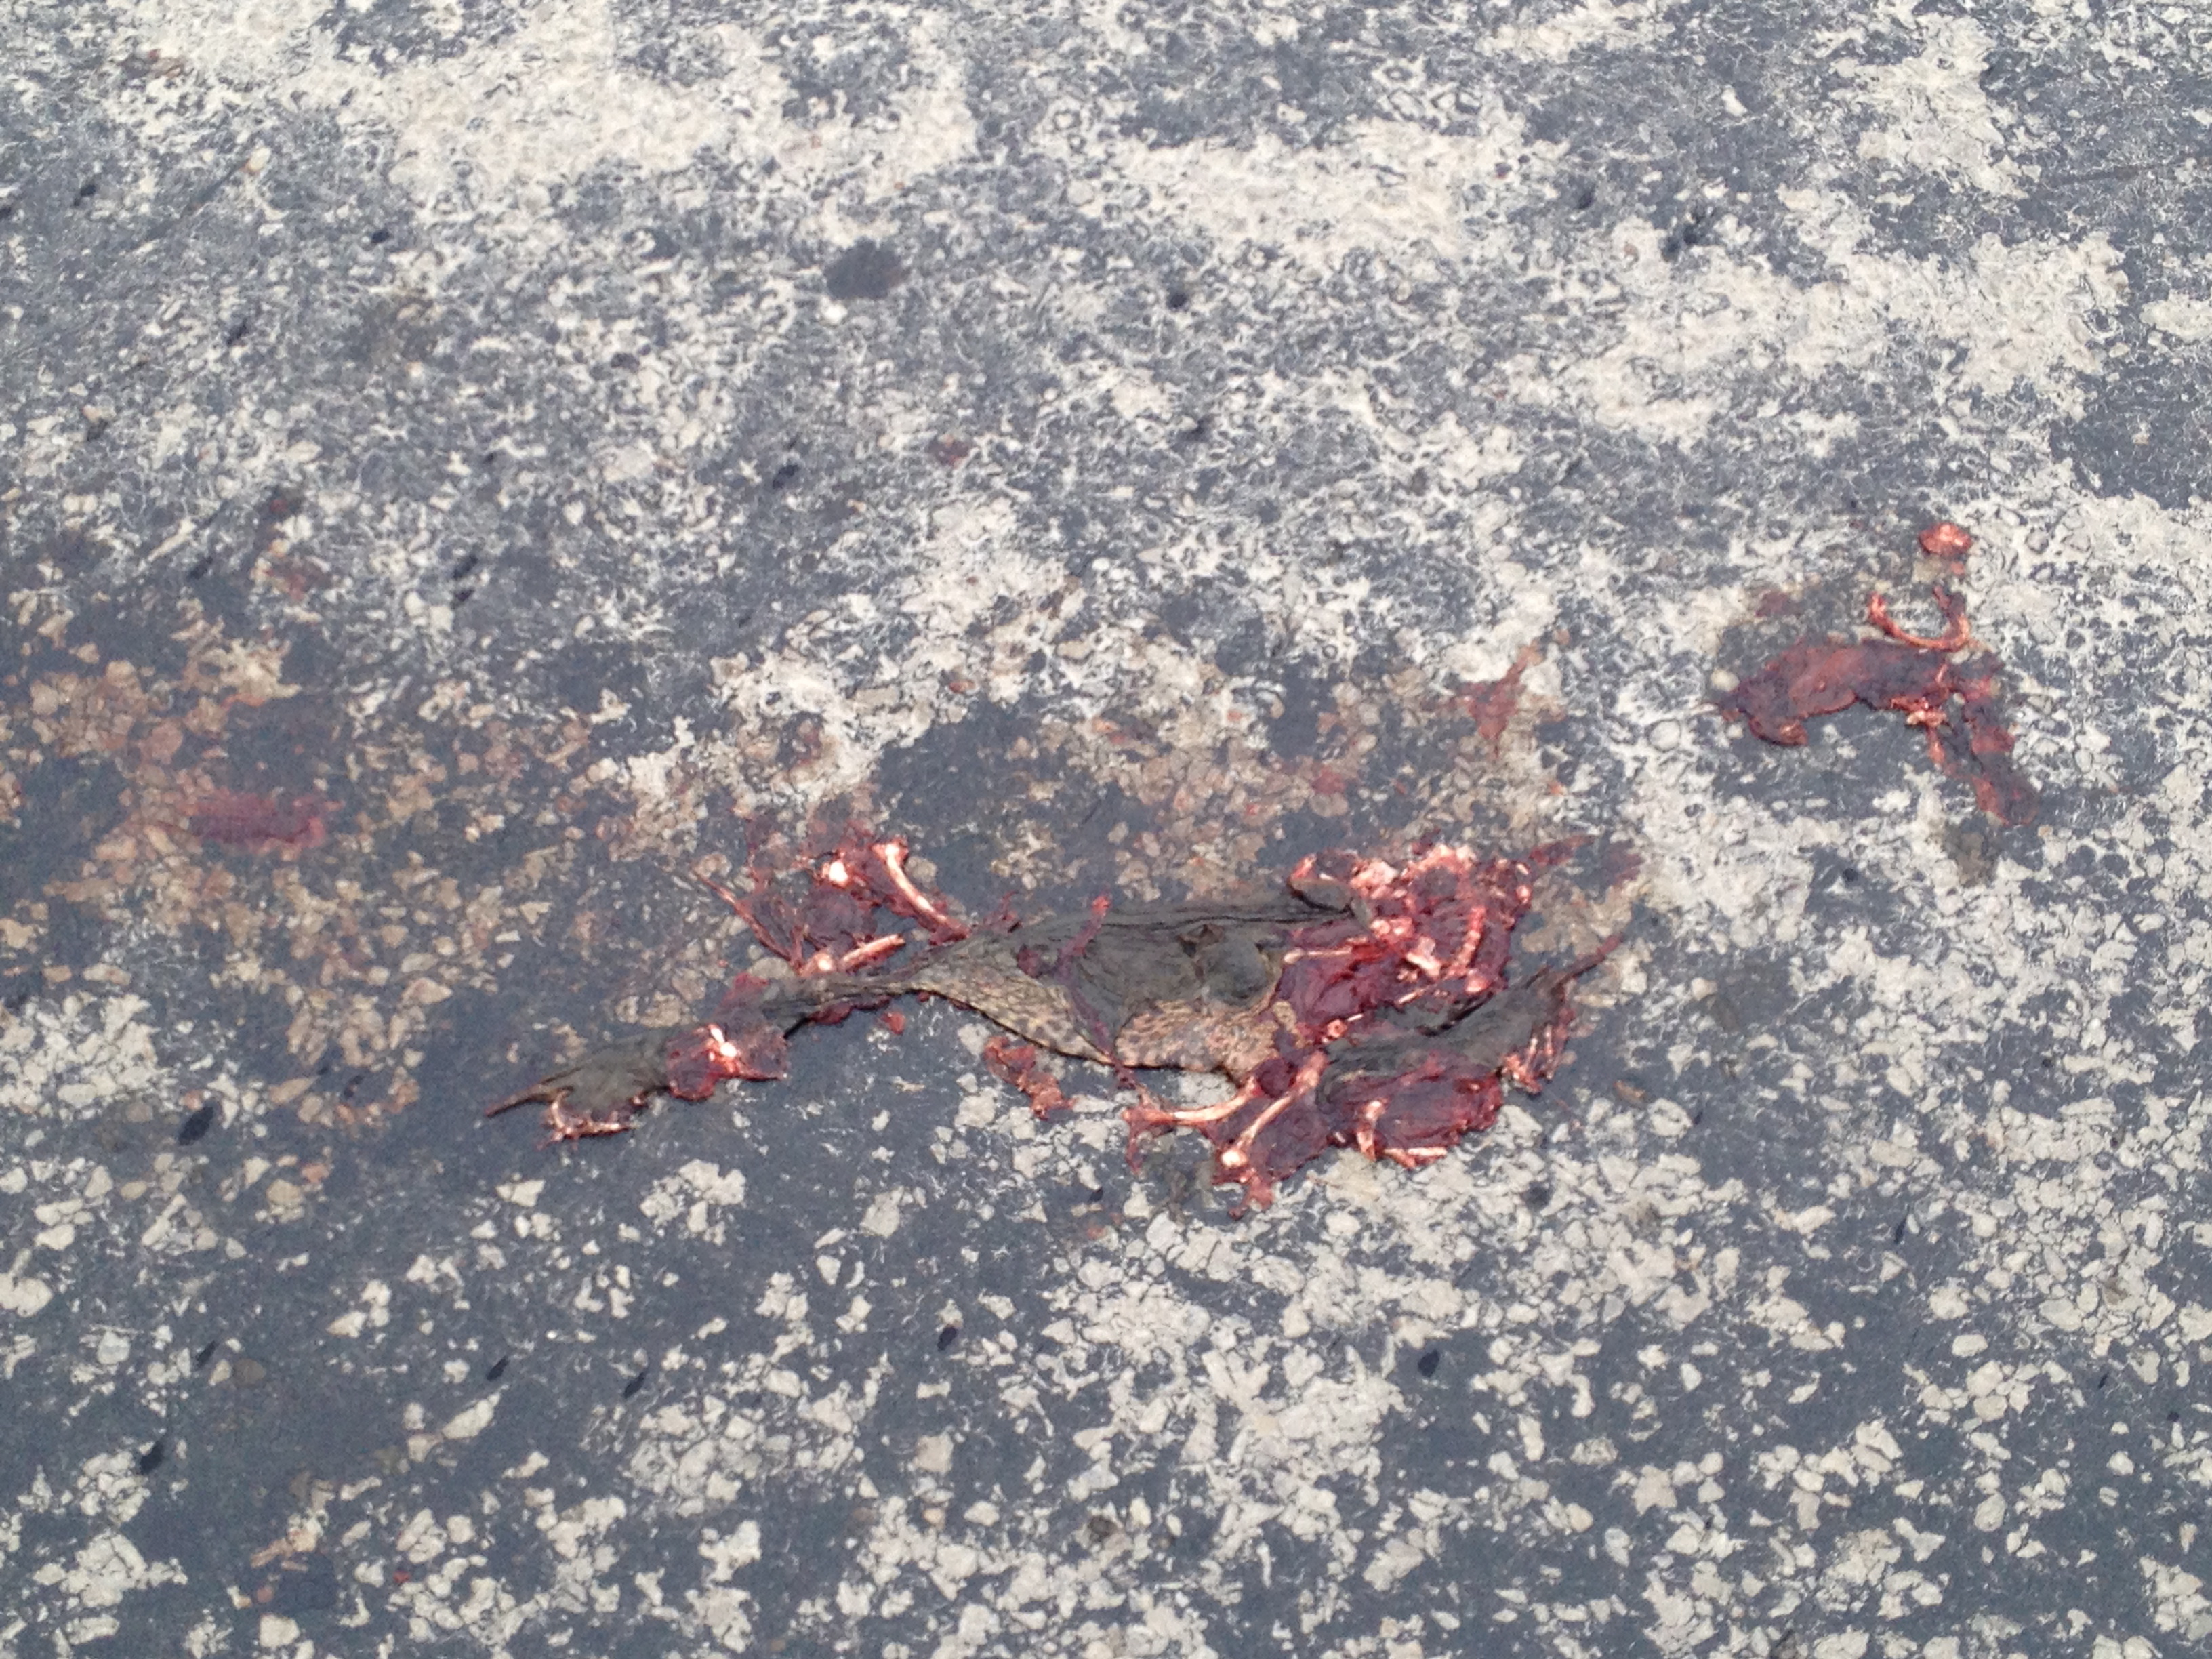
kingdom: Animalia
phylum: Chordata
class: Amphibia
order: Anura
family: Bufonidae
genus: Bufo
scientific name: Bufo bufo
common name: Common toad
